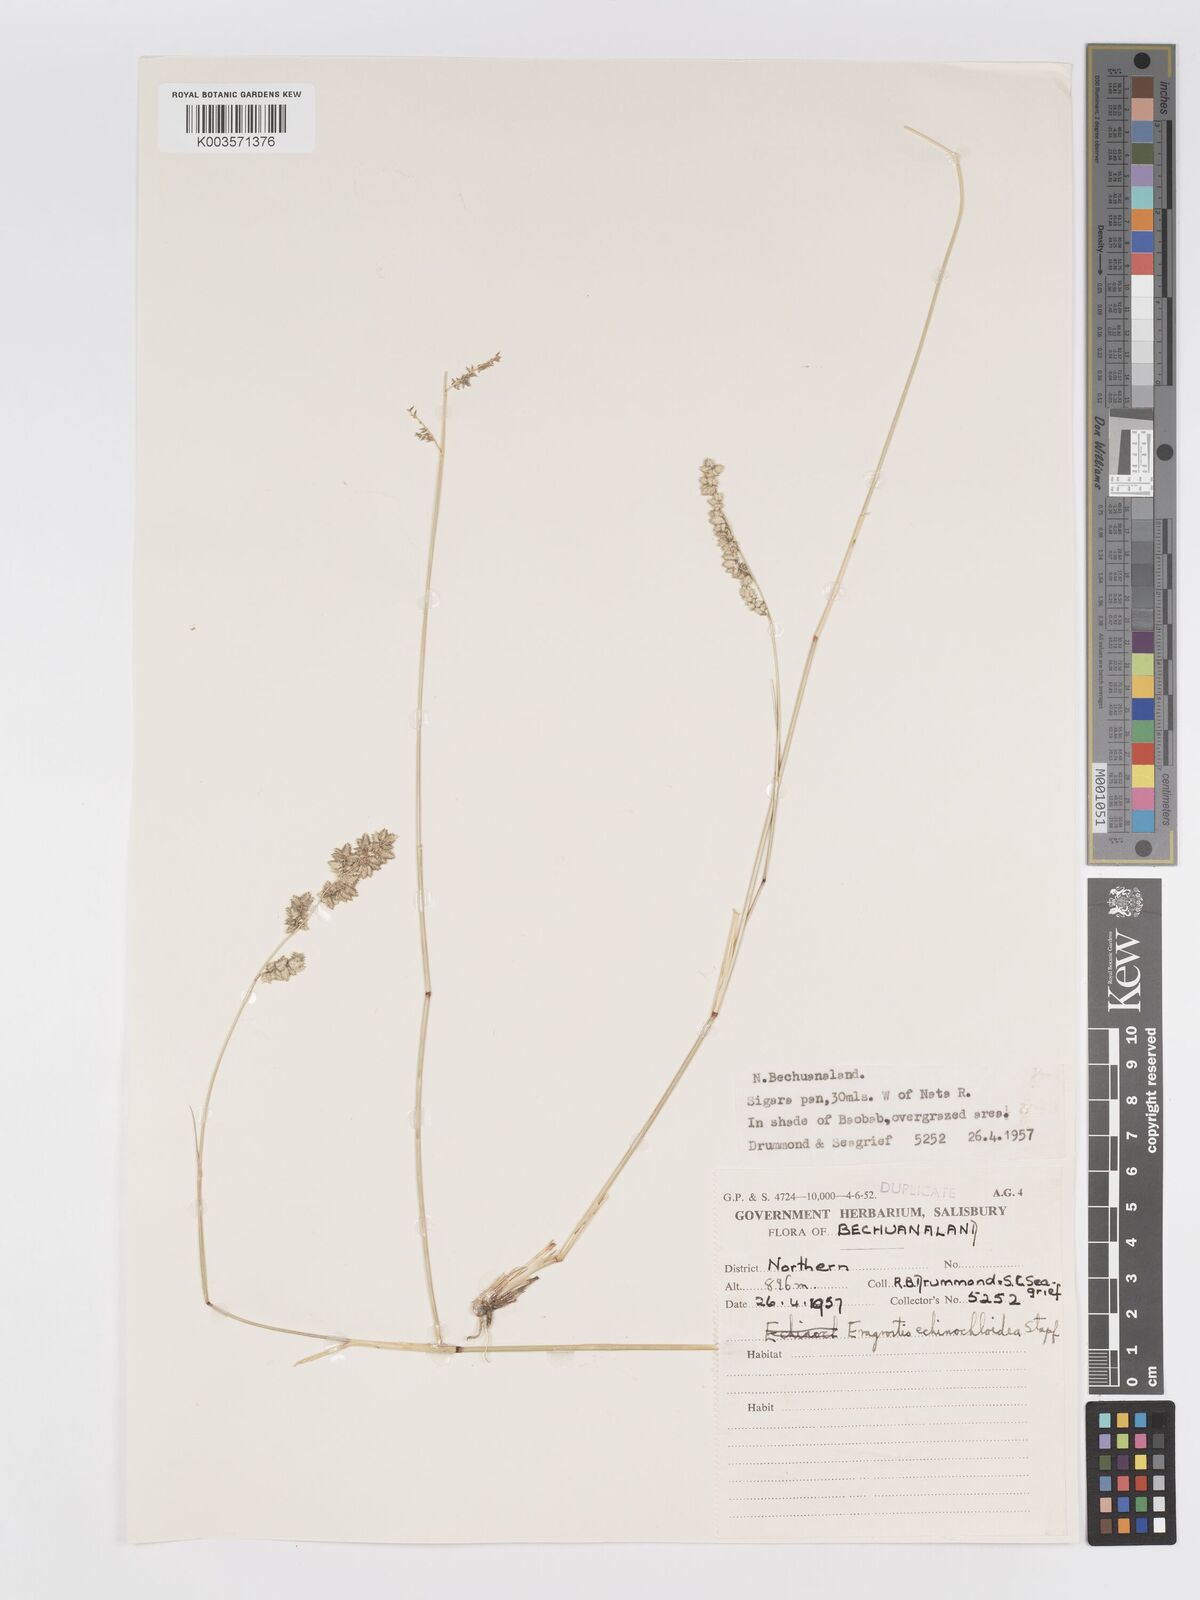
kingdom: Plantae
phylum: Tracheophyta
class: Liliopsida
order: Poales
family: Poaceae
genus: Eragrostis
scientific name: Eragrostis echinochloidea
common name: African lovegrass
